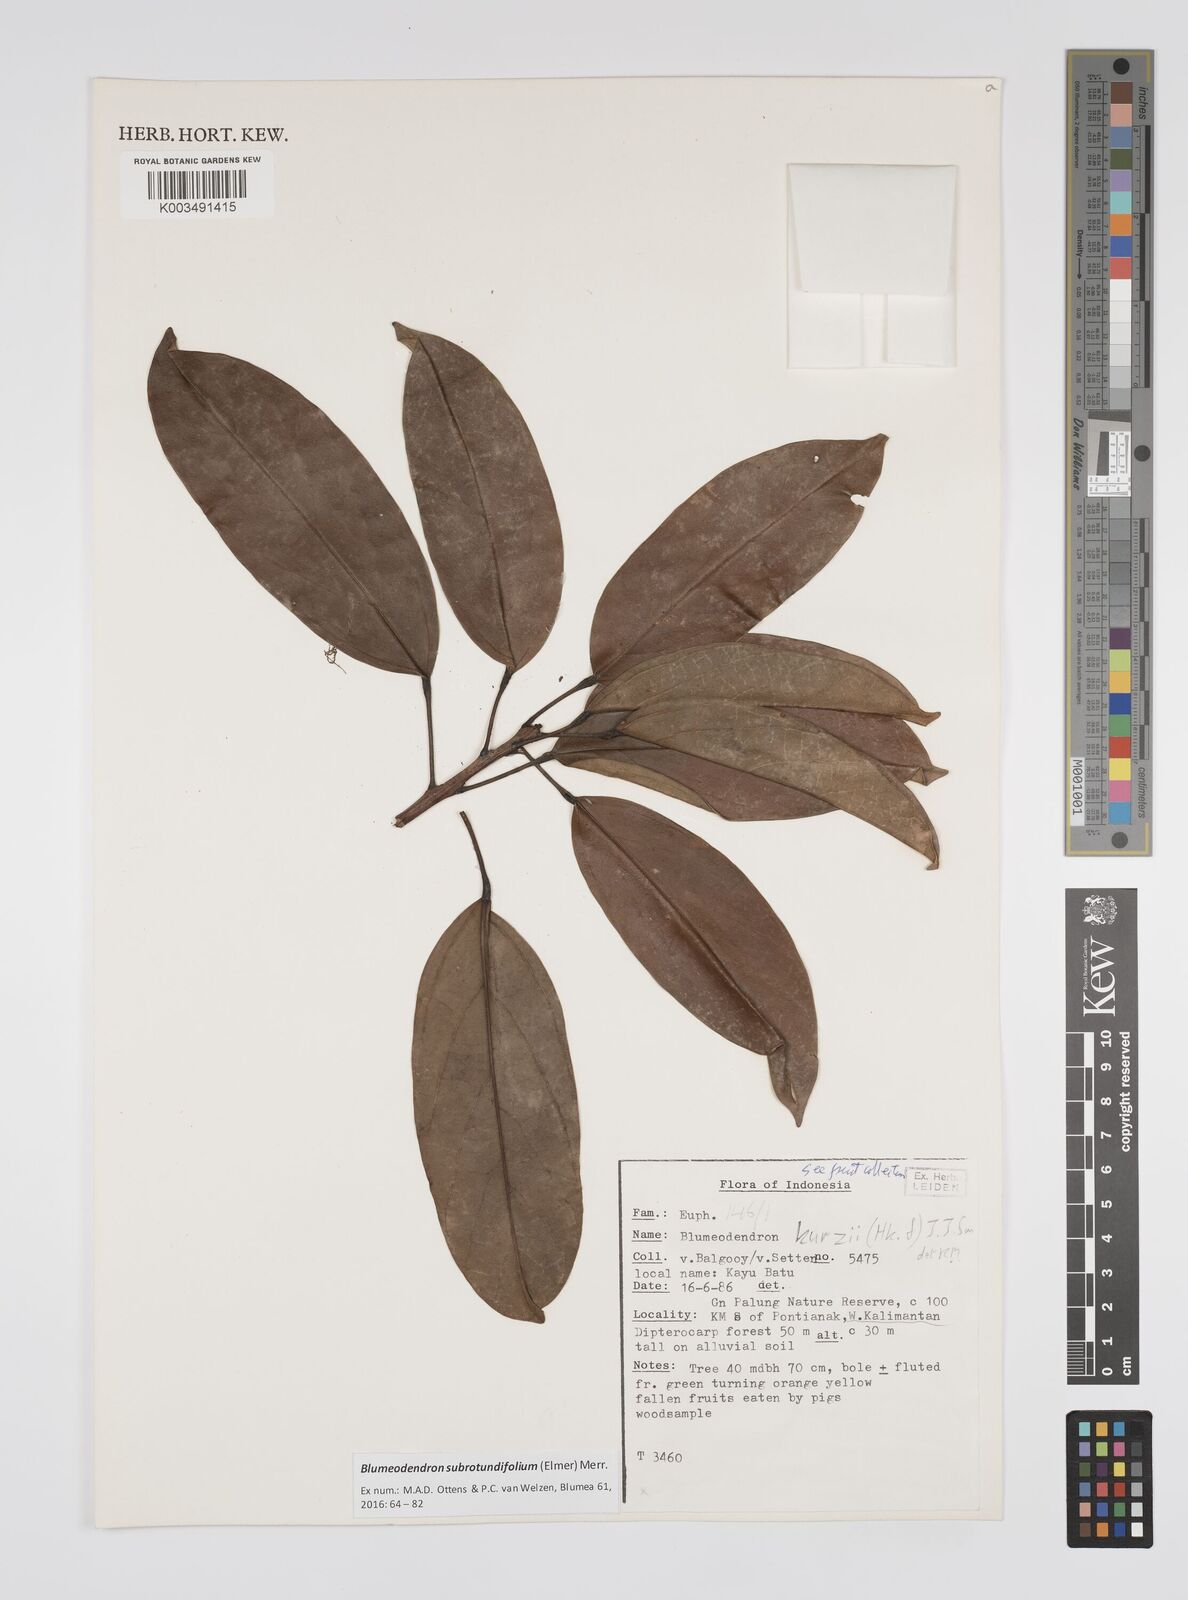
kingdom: Plantae
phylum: Tracheophyta
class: Magnoliopsida
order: Malpighiales
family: Euphorbiaceae
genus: Blumeodendron
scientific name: Blumeodendron subrotundifolium
